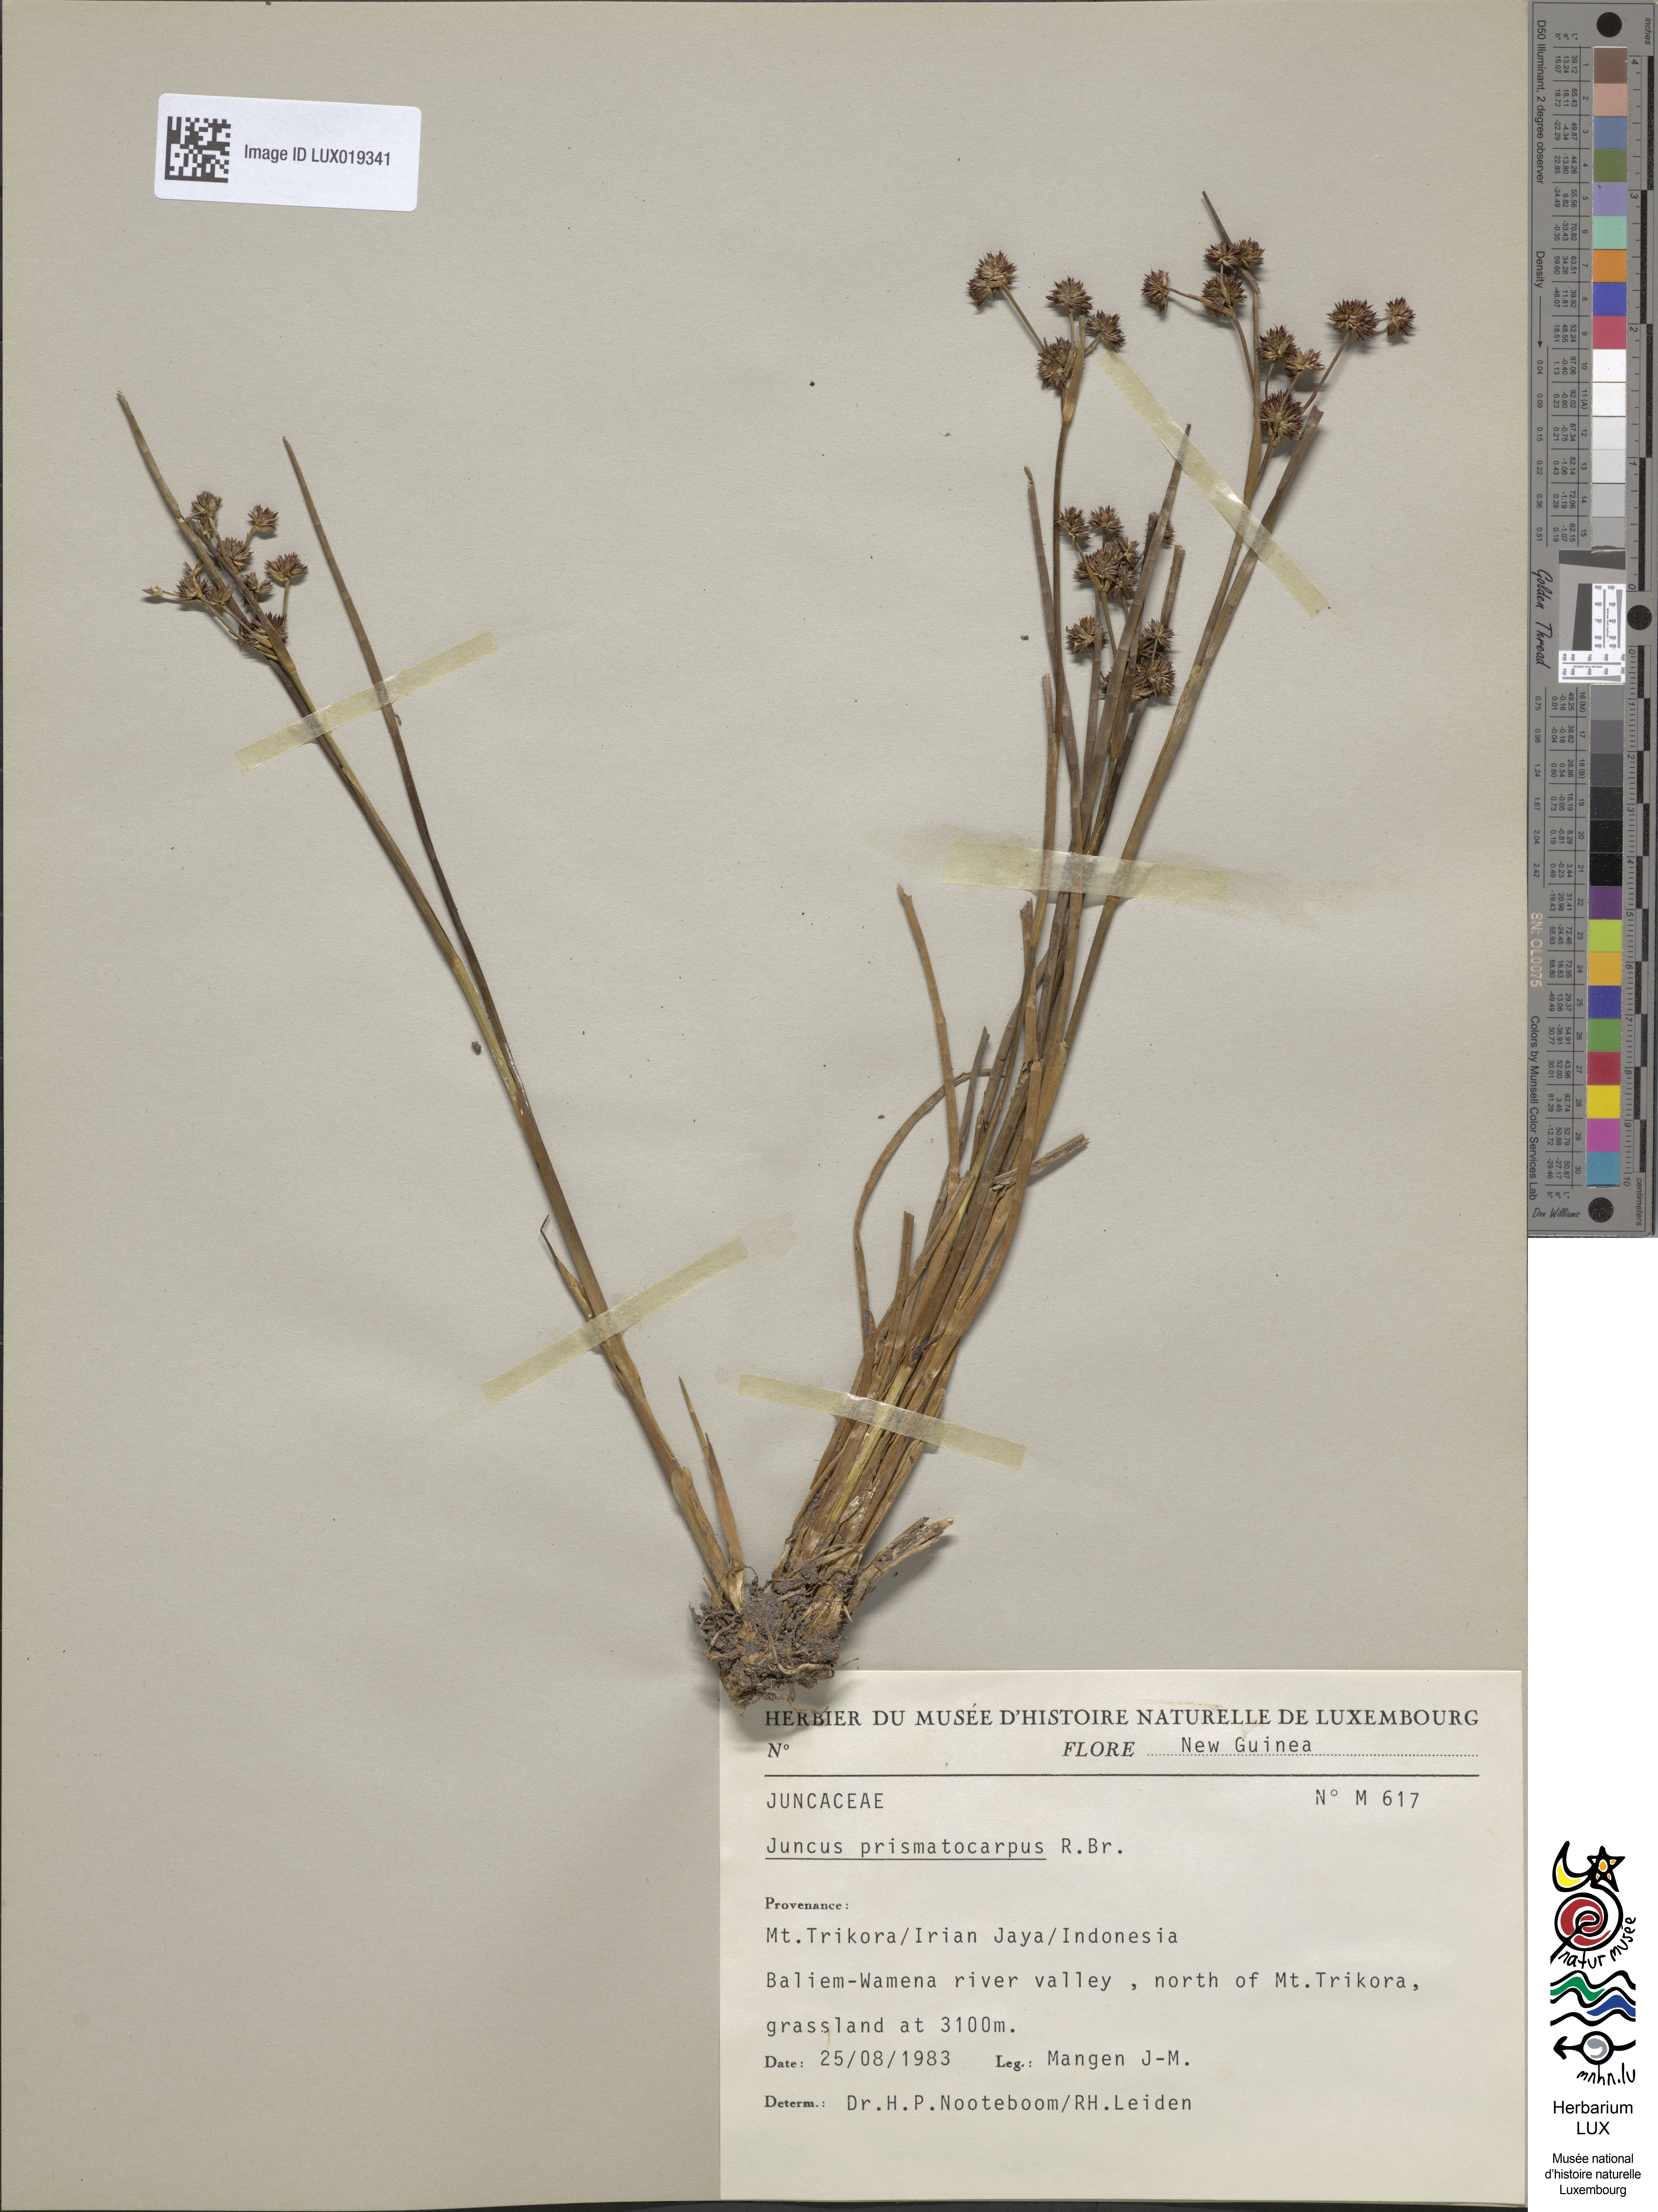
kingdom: Plantae
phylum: Tracheophyta
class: Liliopsida
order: Poales
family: Juncaceae
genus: Juncus
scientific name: Juncus prismatocarpus
